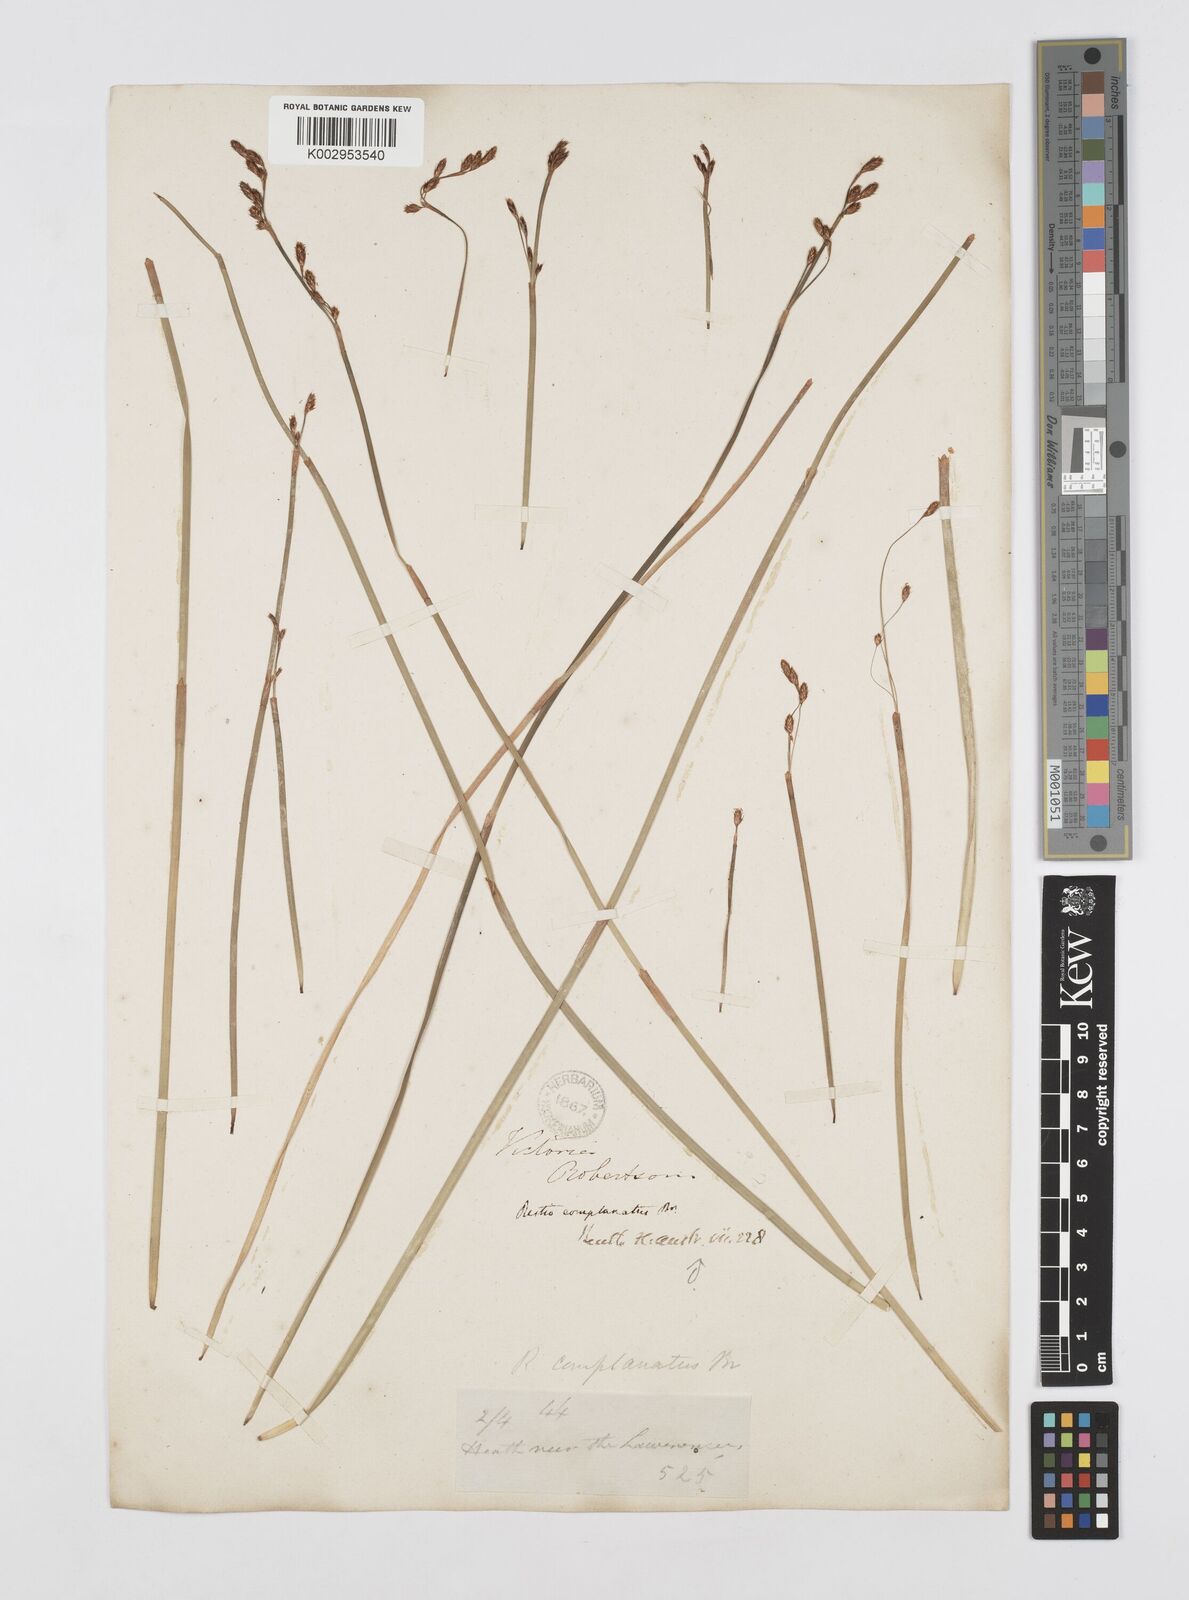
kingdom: Plantae
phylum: Tracheophyta
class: Liliopsida
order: Poales
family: Restionaceae
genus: Eurychorda
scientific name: Eurychorda complanata
